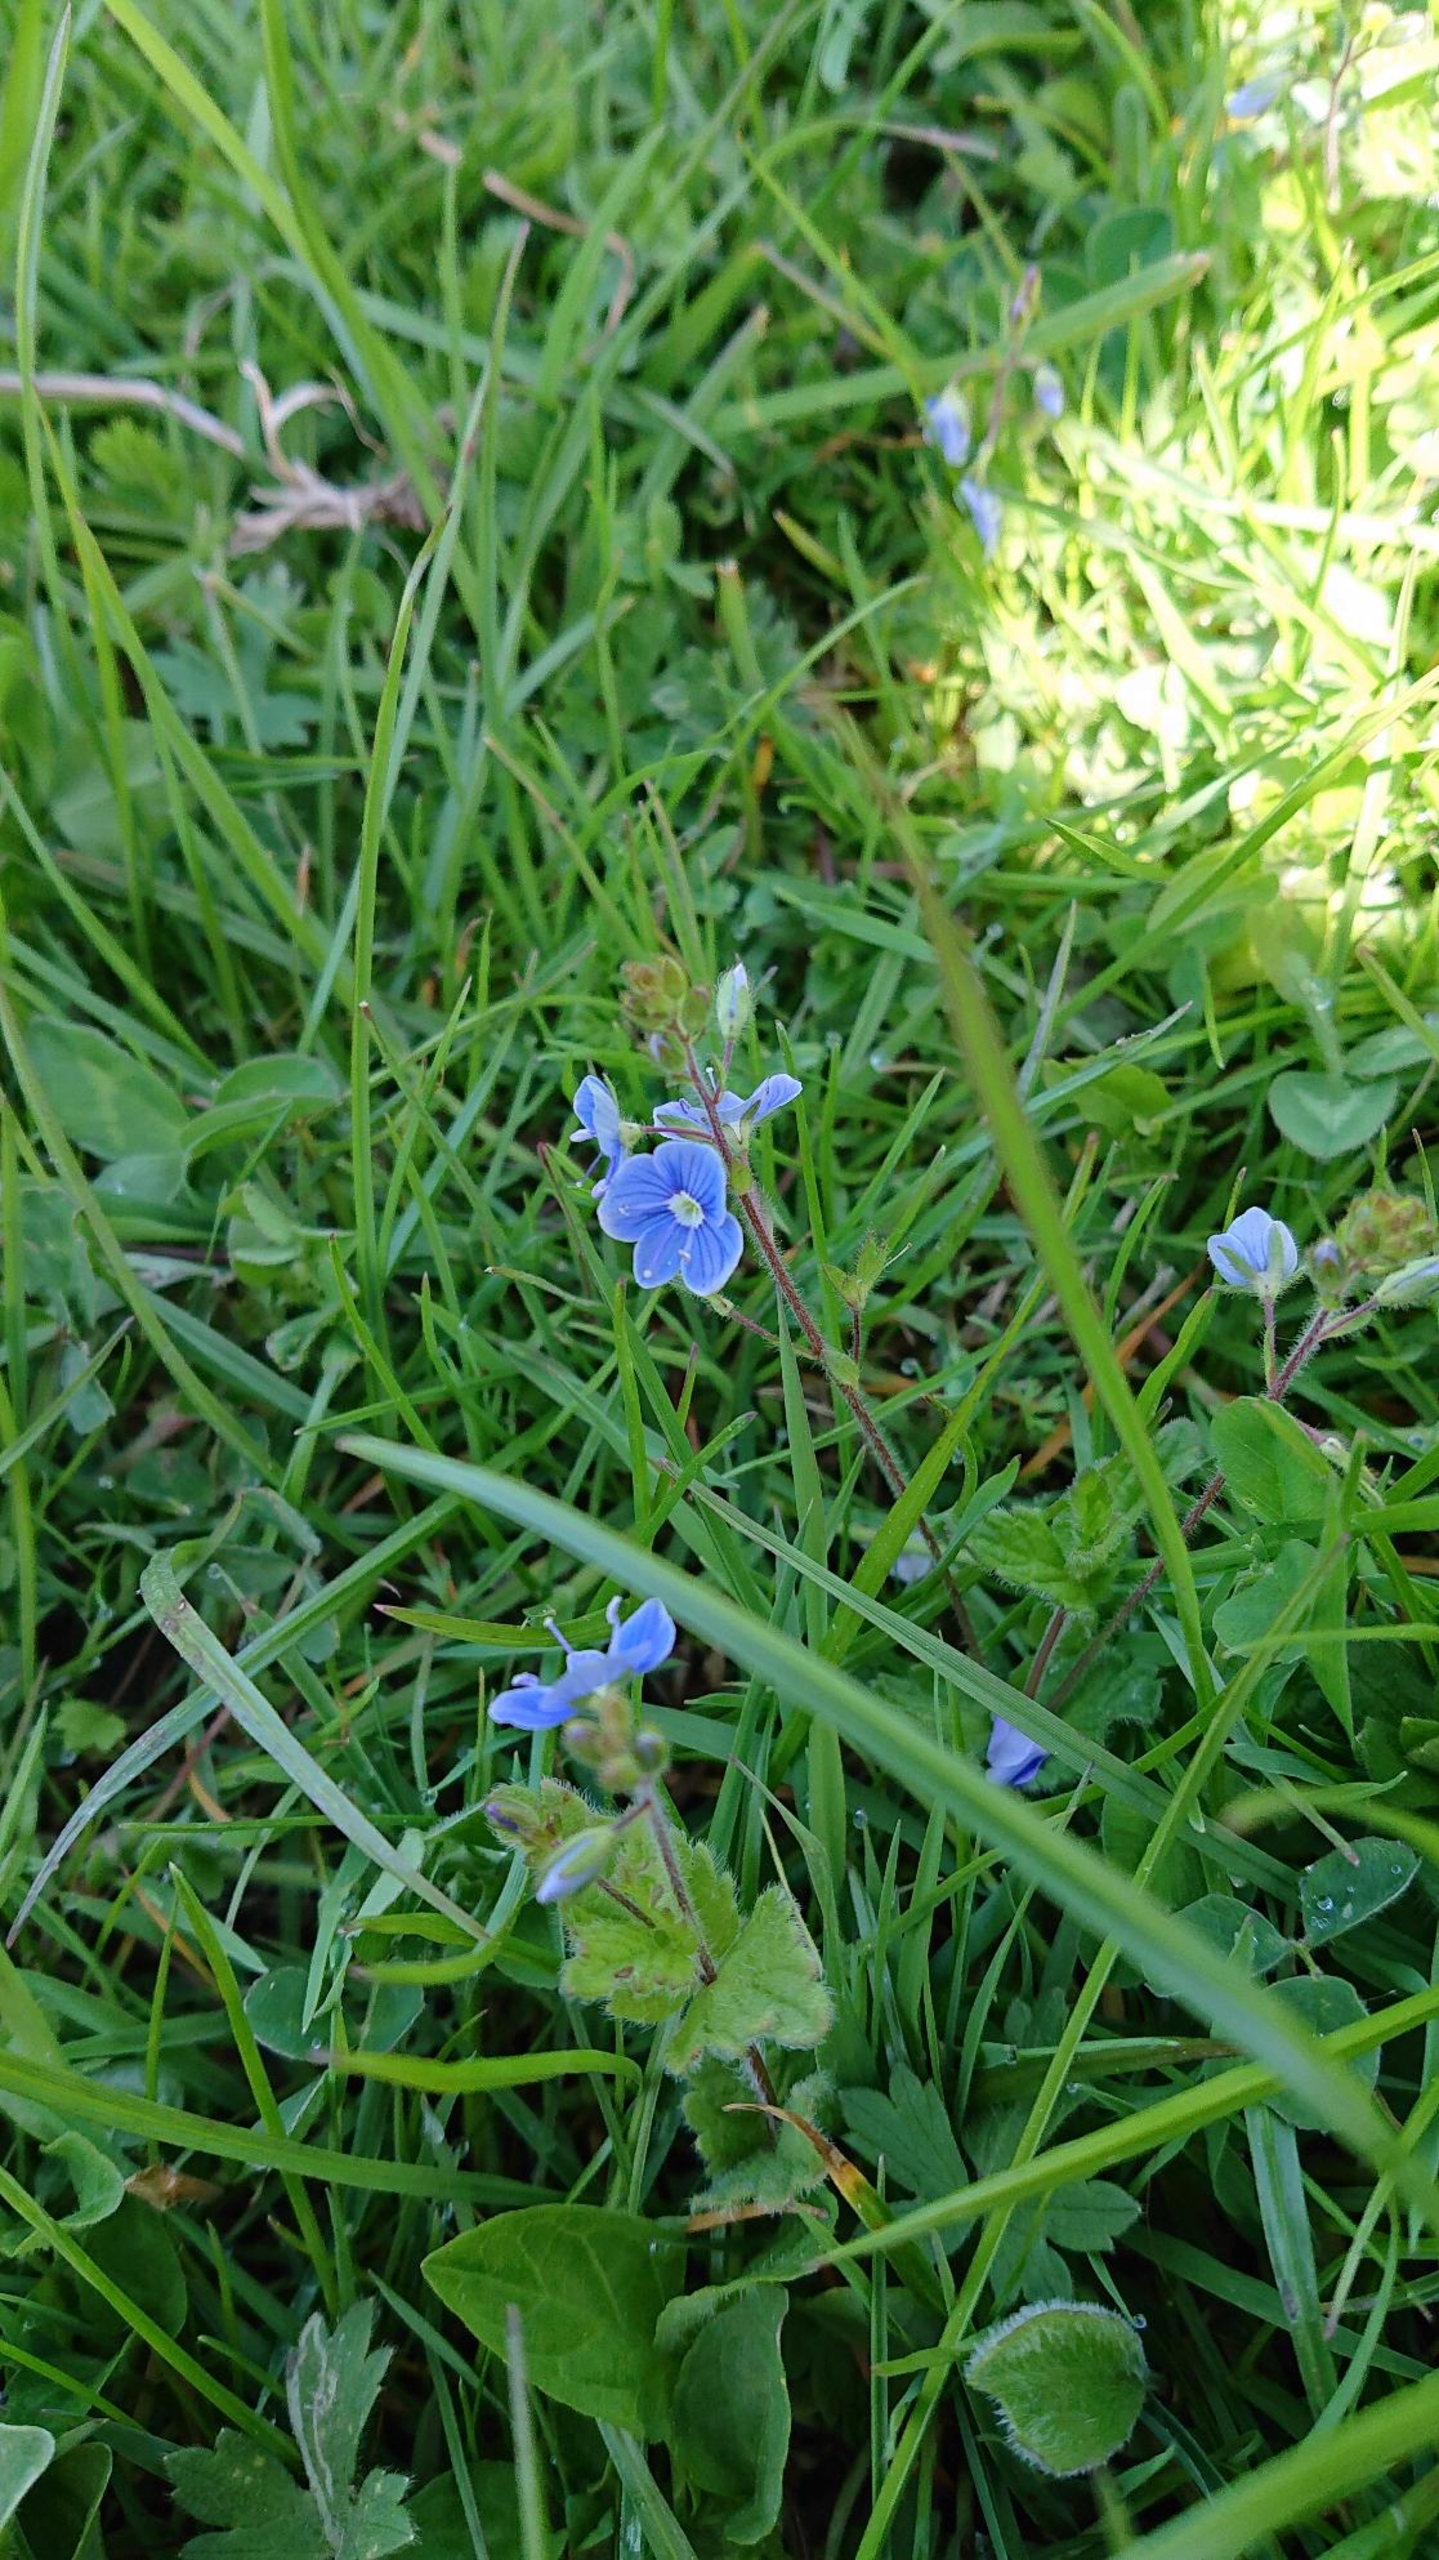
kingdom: Plantae
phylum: Tracheophyta
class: Magnoliopsida
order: Lamiales
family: Plantaginaceae
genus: Veronica
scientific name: Veronica chamaedrys
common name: Tveskægget ærenpris
